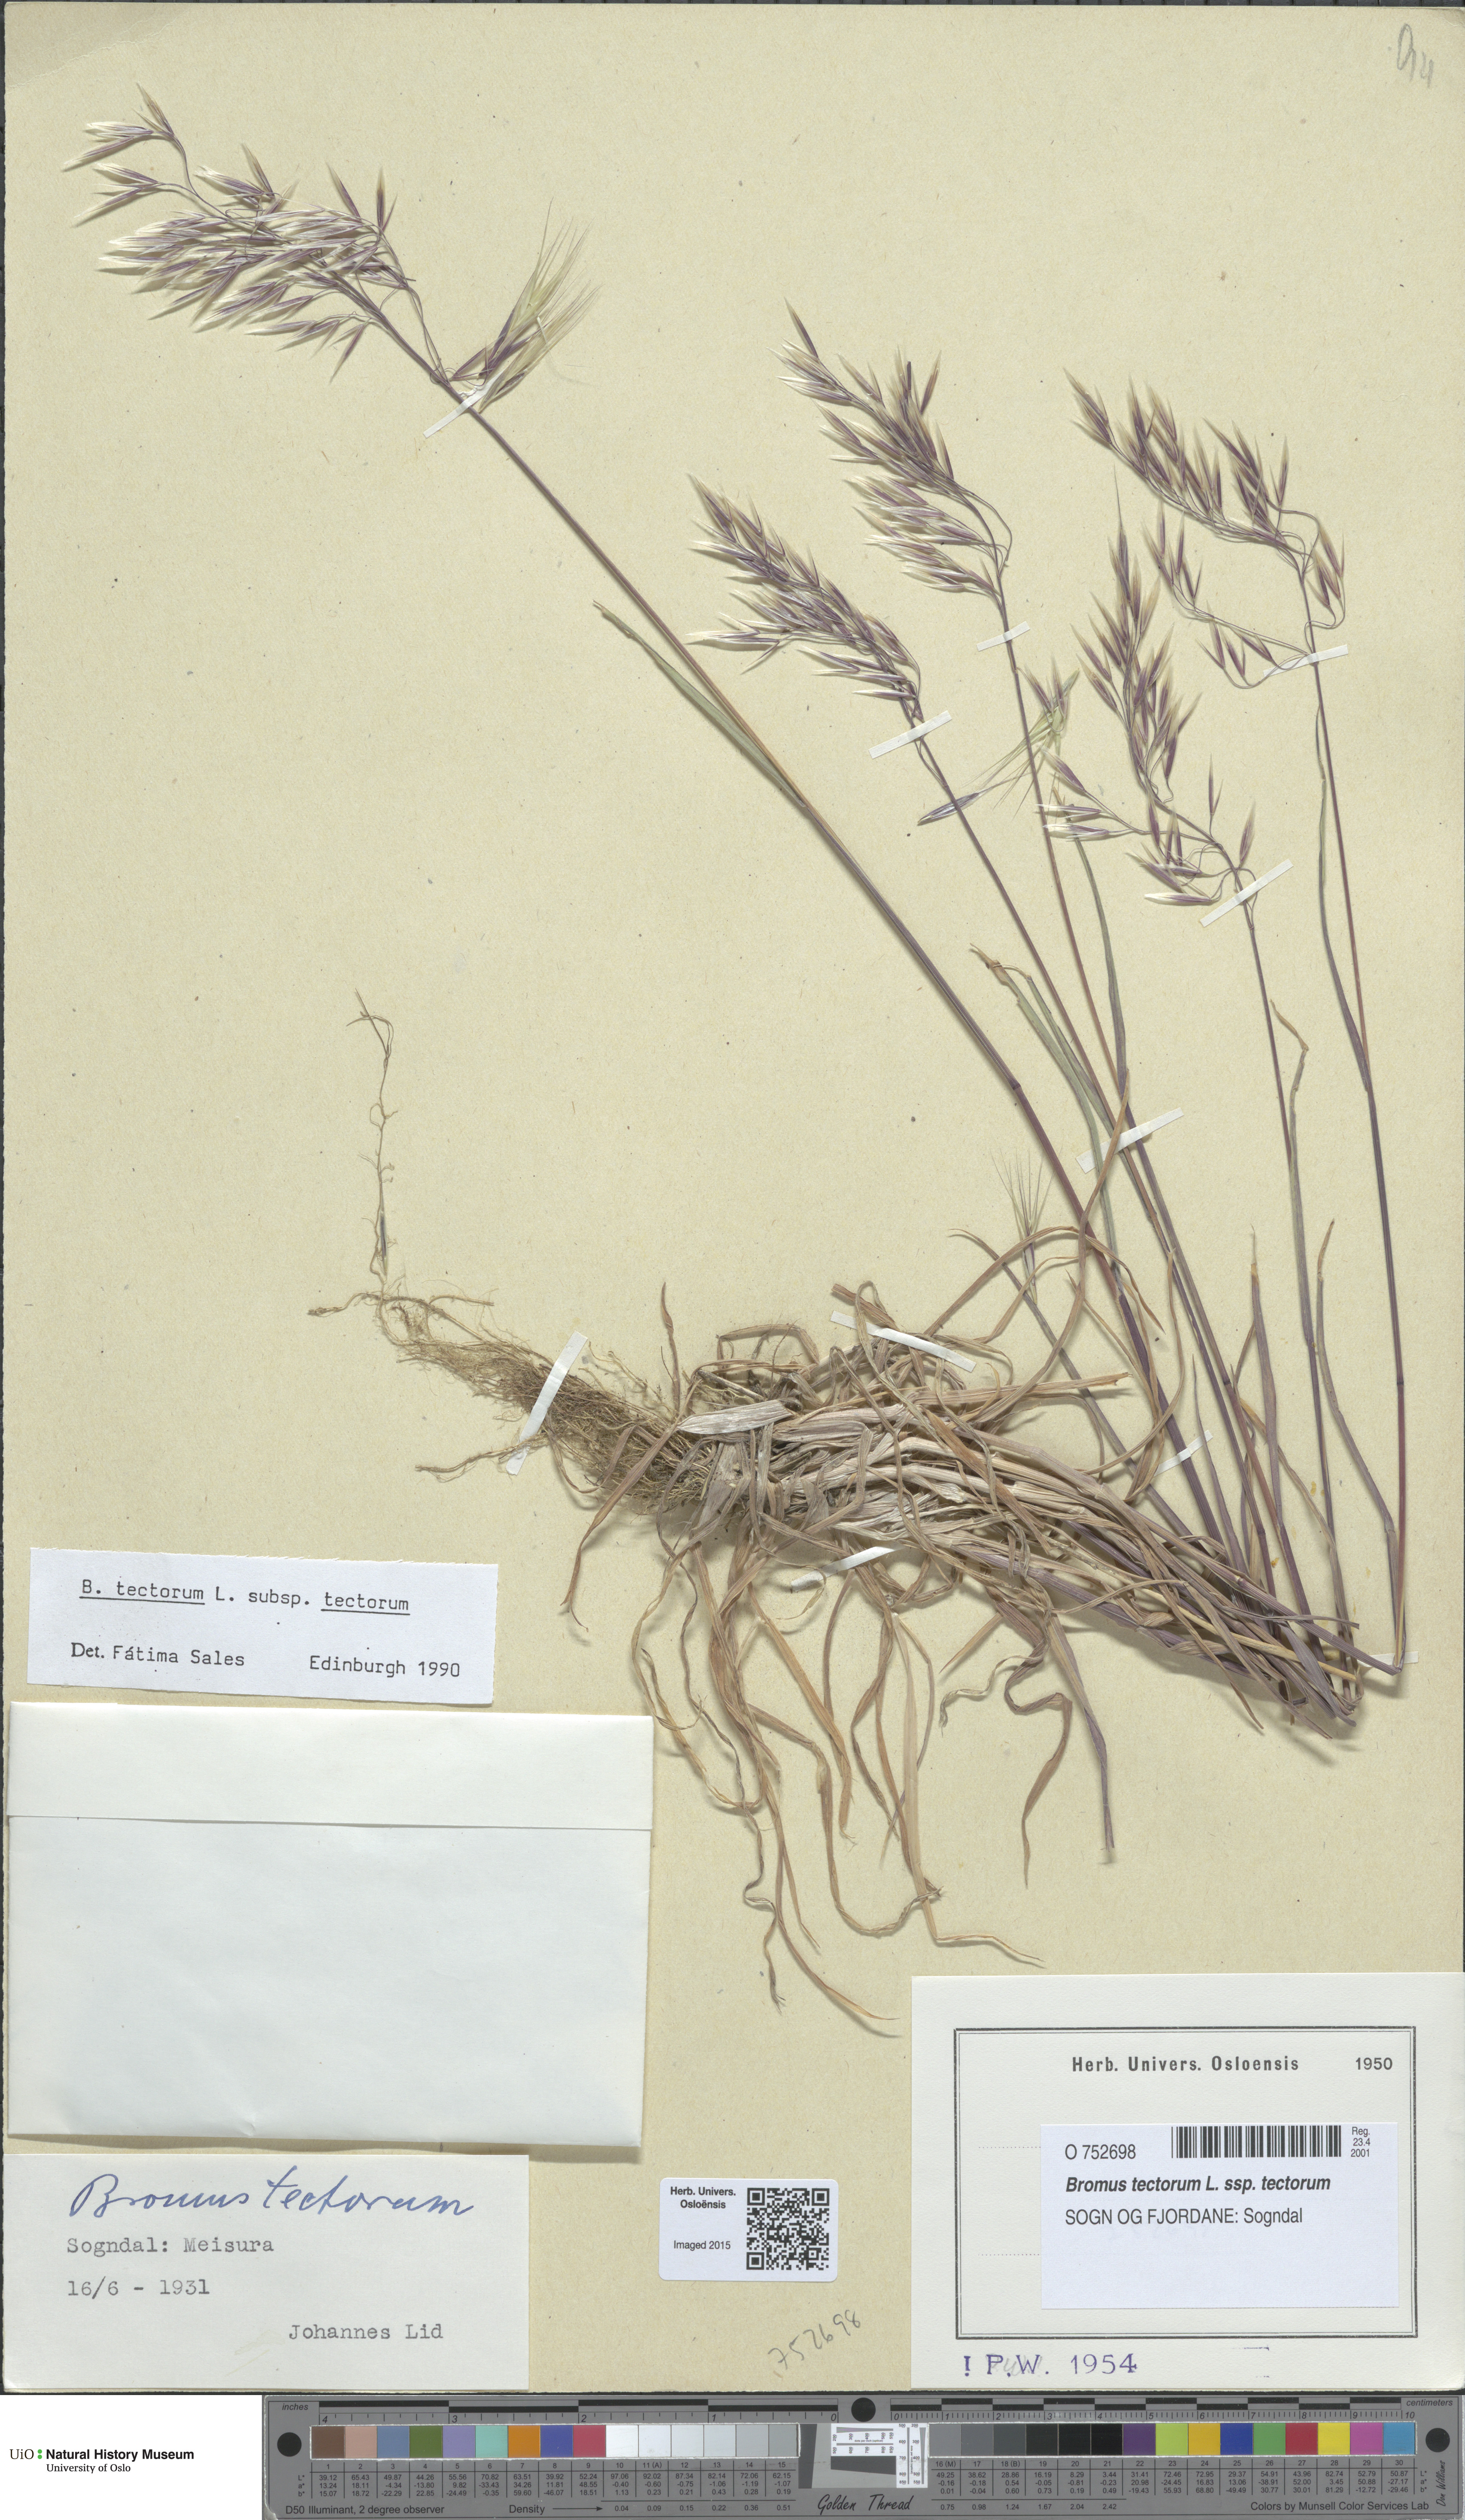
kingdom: Plantae
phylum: Tracheophyta
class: Liliopsida
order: Poales
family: Poaceae
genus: Bromus
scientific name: Bromus tectorum
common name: Cheatgrass
